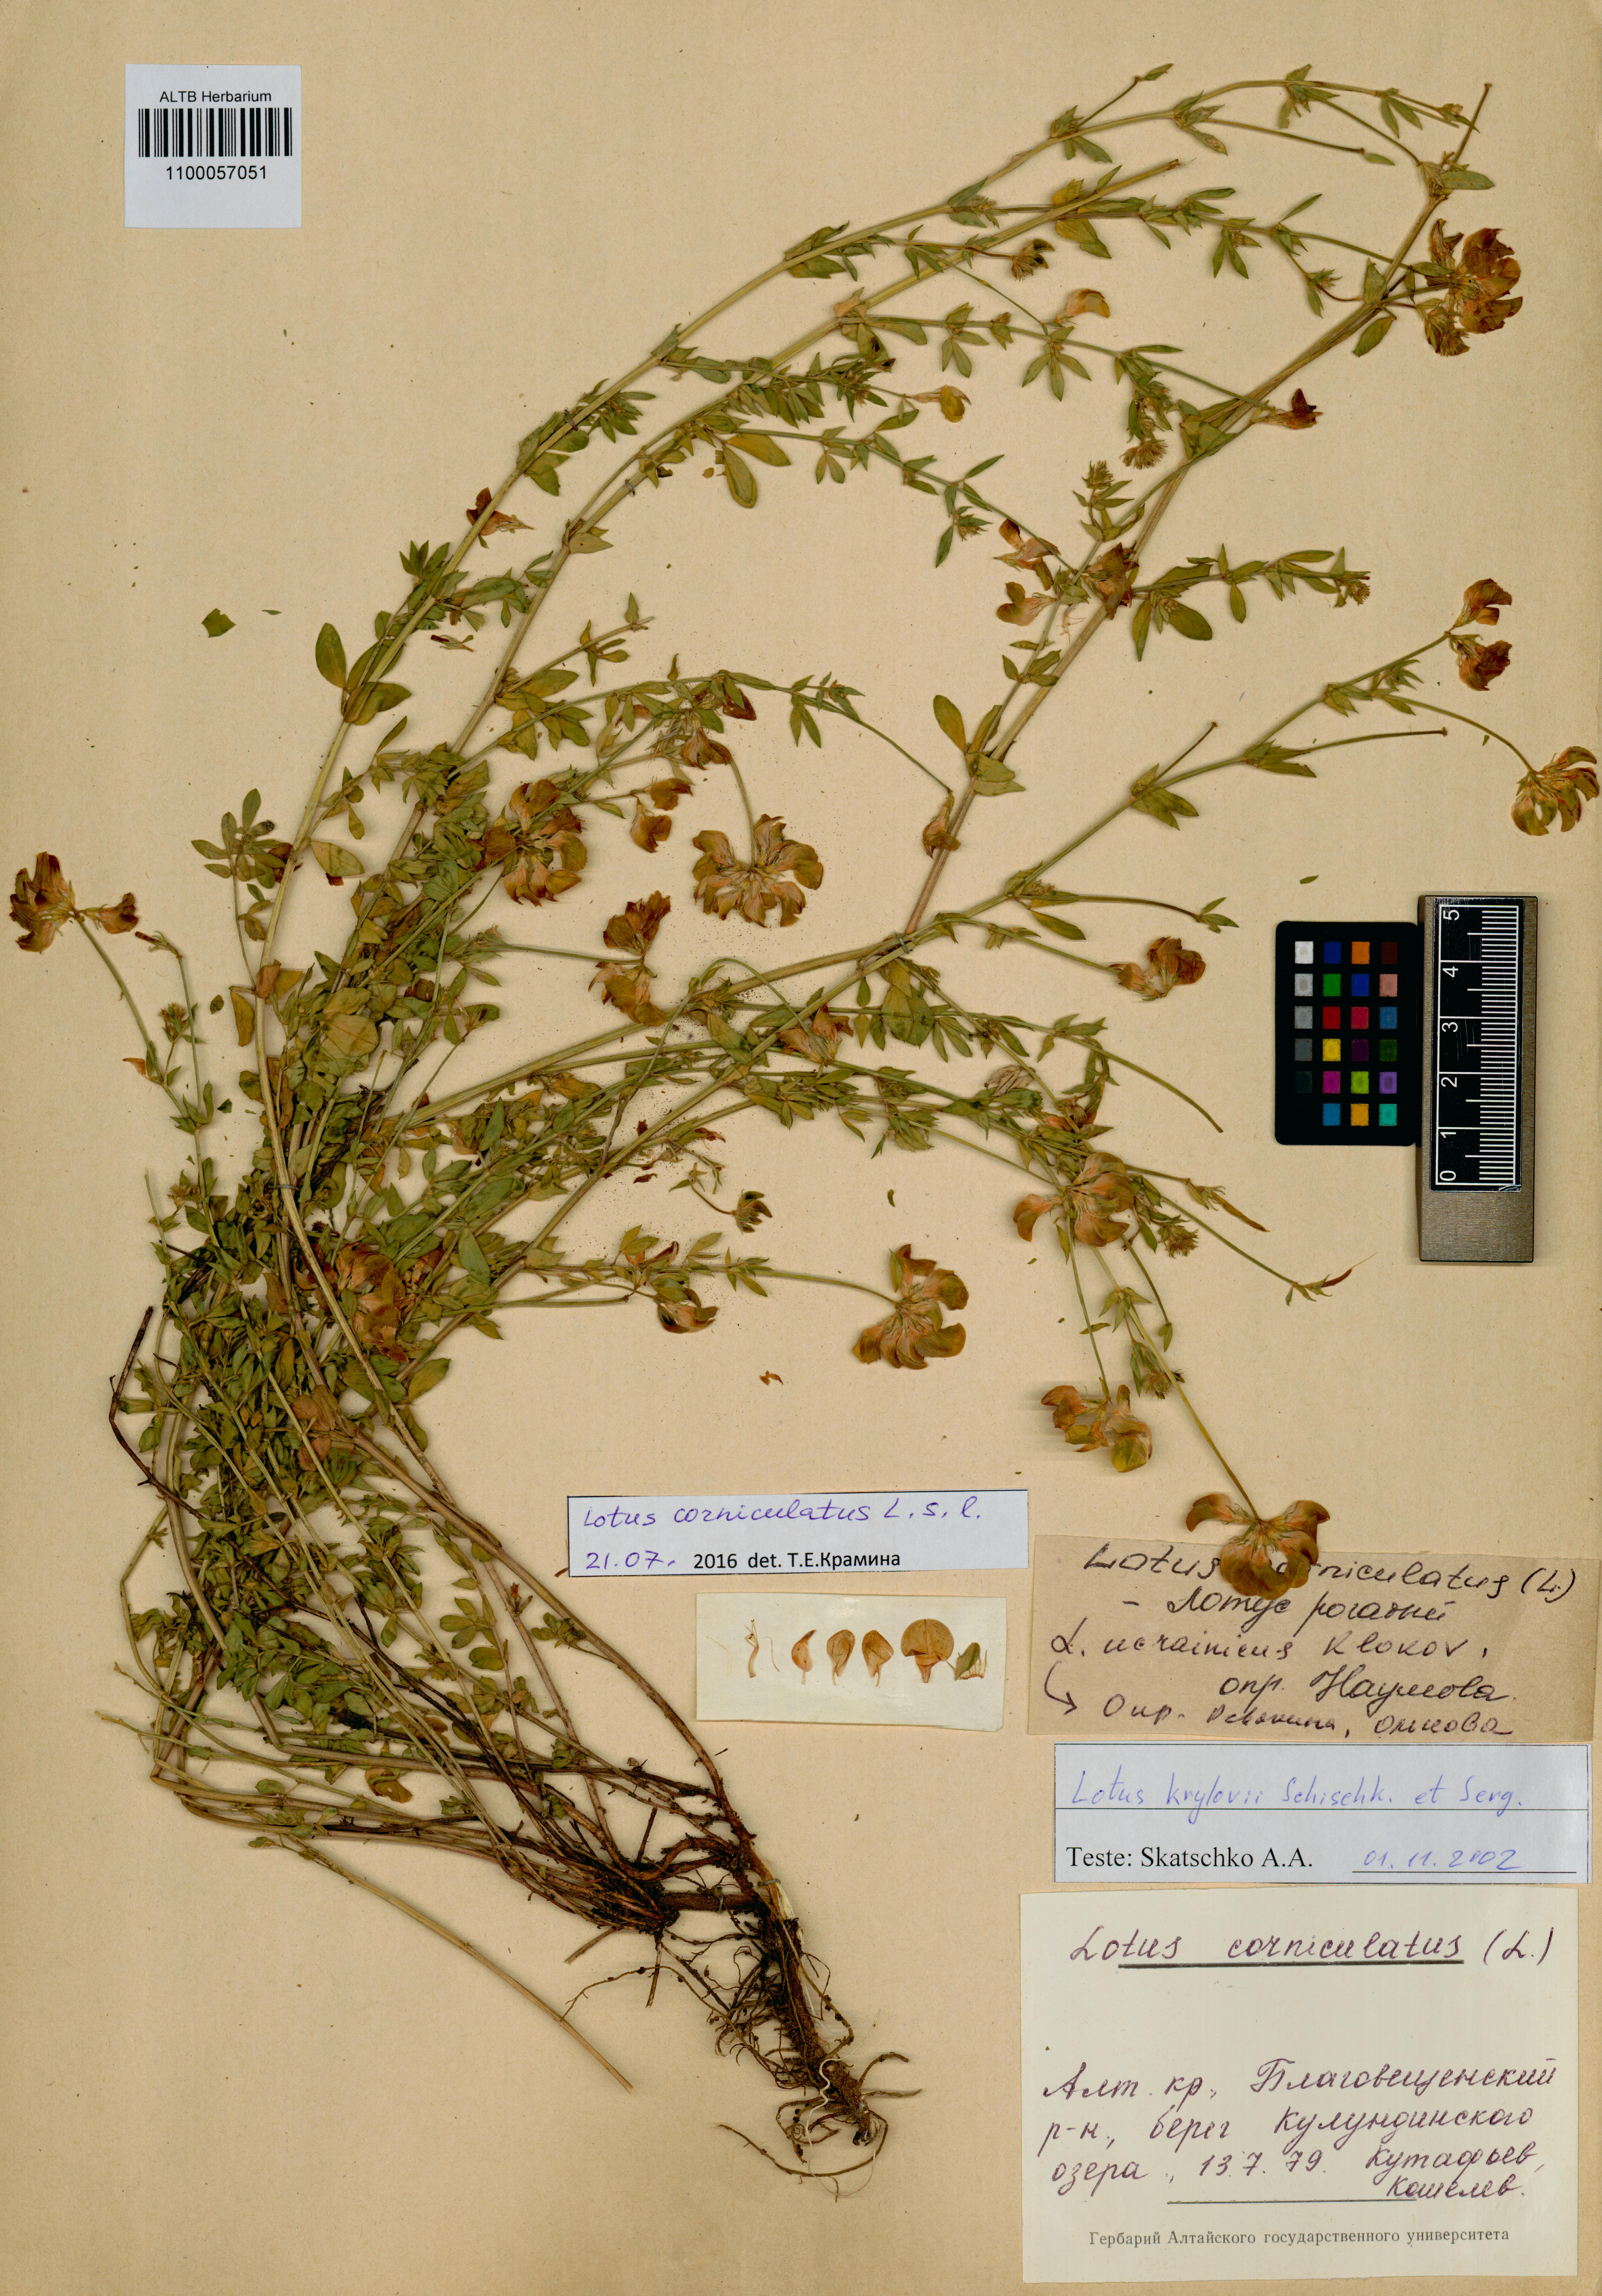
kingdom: Plantae
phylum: Tracheophyta
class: Magnoliopsida
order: Fabales
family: Fabaceae
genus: Lotus
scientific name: Lotus corniculatus
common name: Common bird's-foot-trefoil
